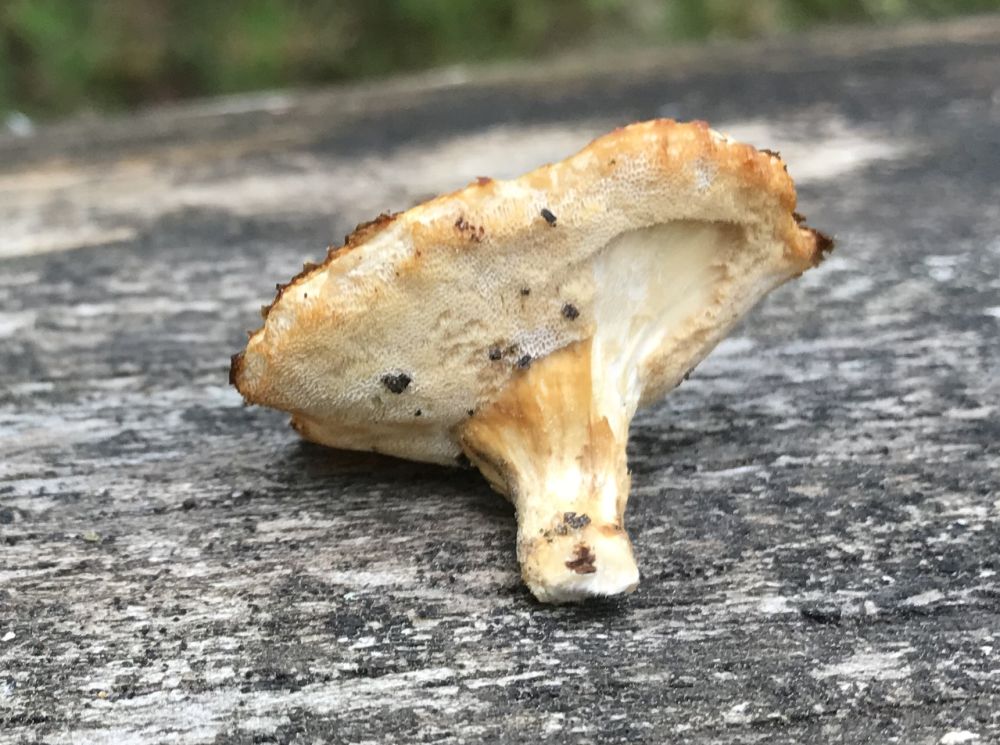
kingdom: Fungi
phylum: Basidiomycota
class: Agaricomycetes
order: Polyporales
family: Polyporaceae
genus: Lentinus
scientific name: Lentinus substrictus
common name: forårs-stilkporesvamp
